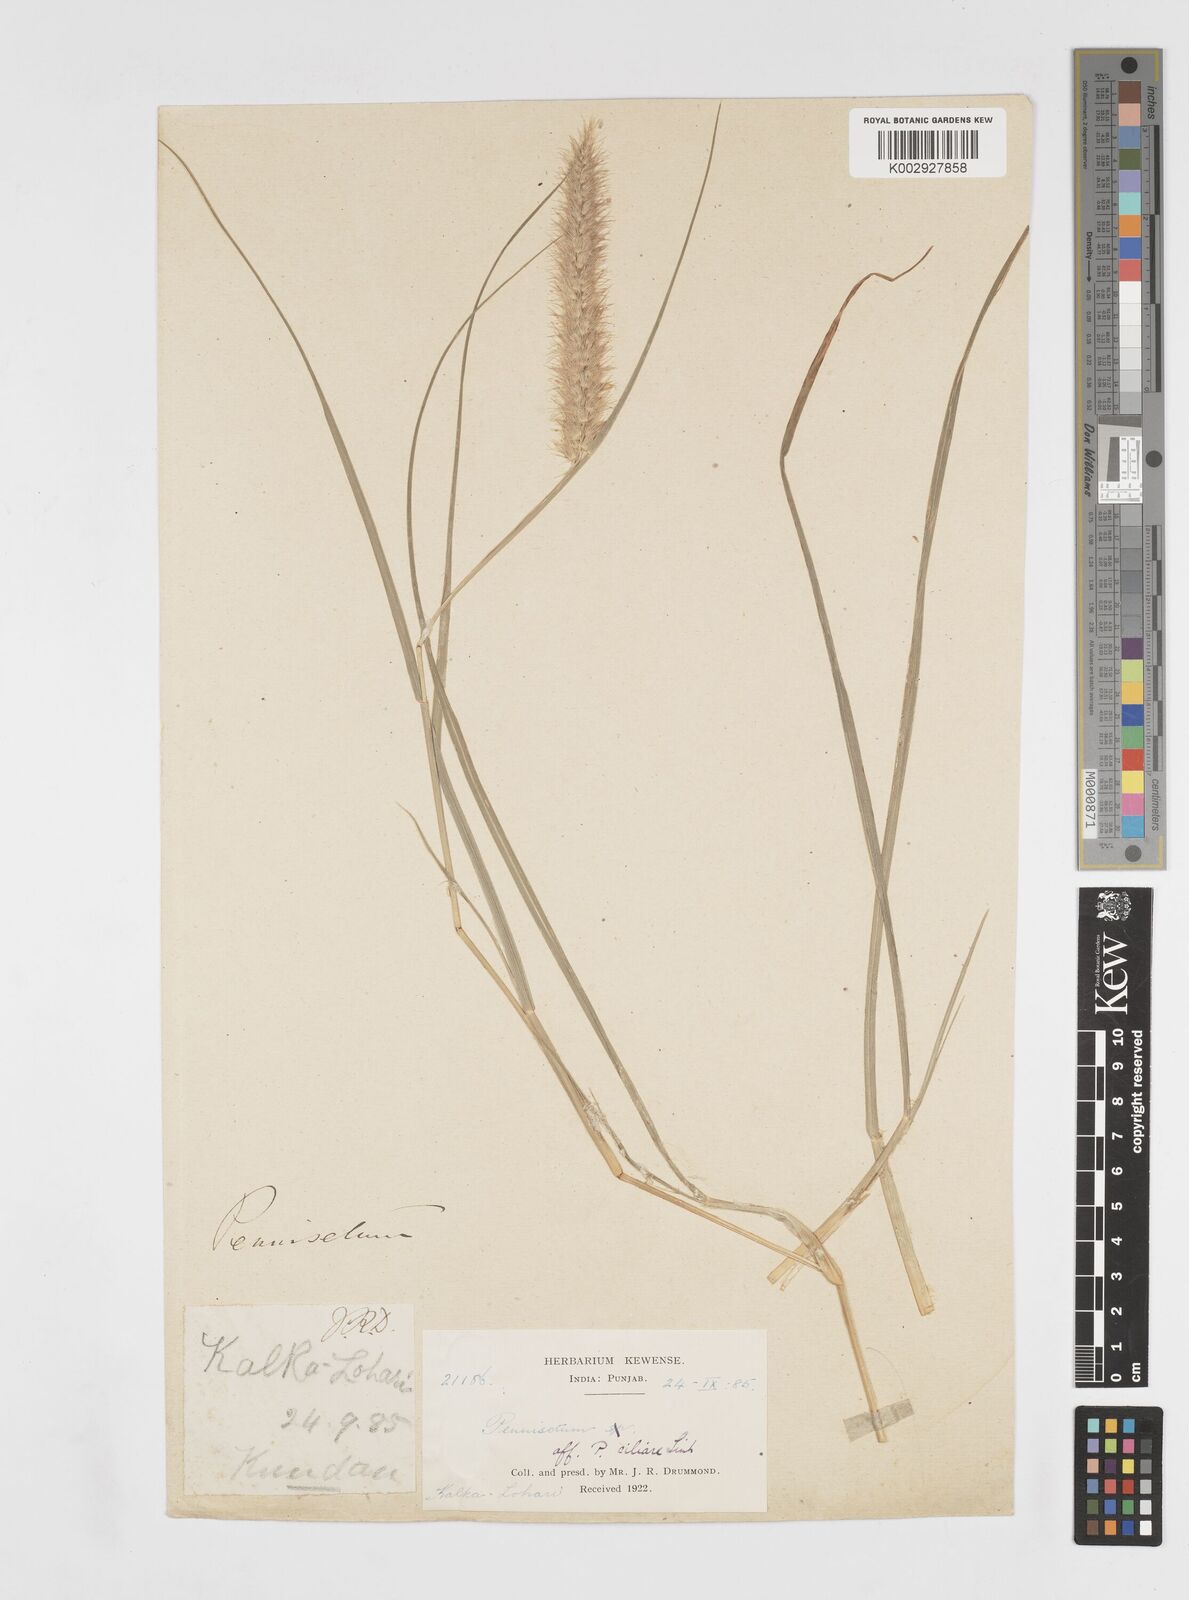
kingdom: Plantae
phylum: Tracheophyta
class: Liliopsida
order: Poales
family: Poaceae
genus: Cenchrus
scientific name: Cenchrus ciliaris
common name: Buffelgrass
